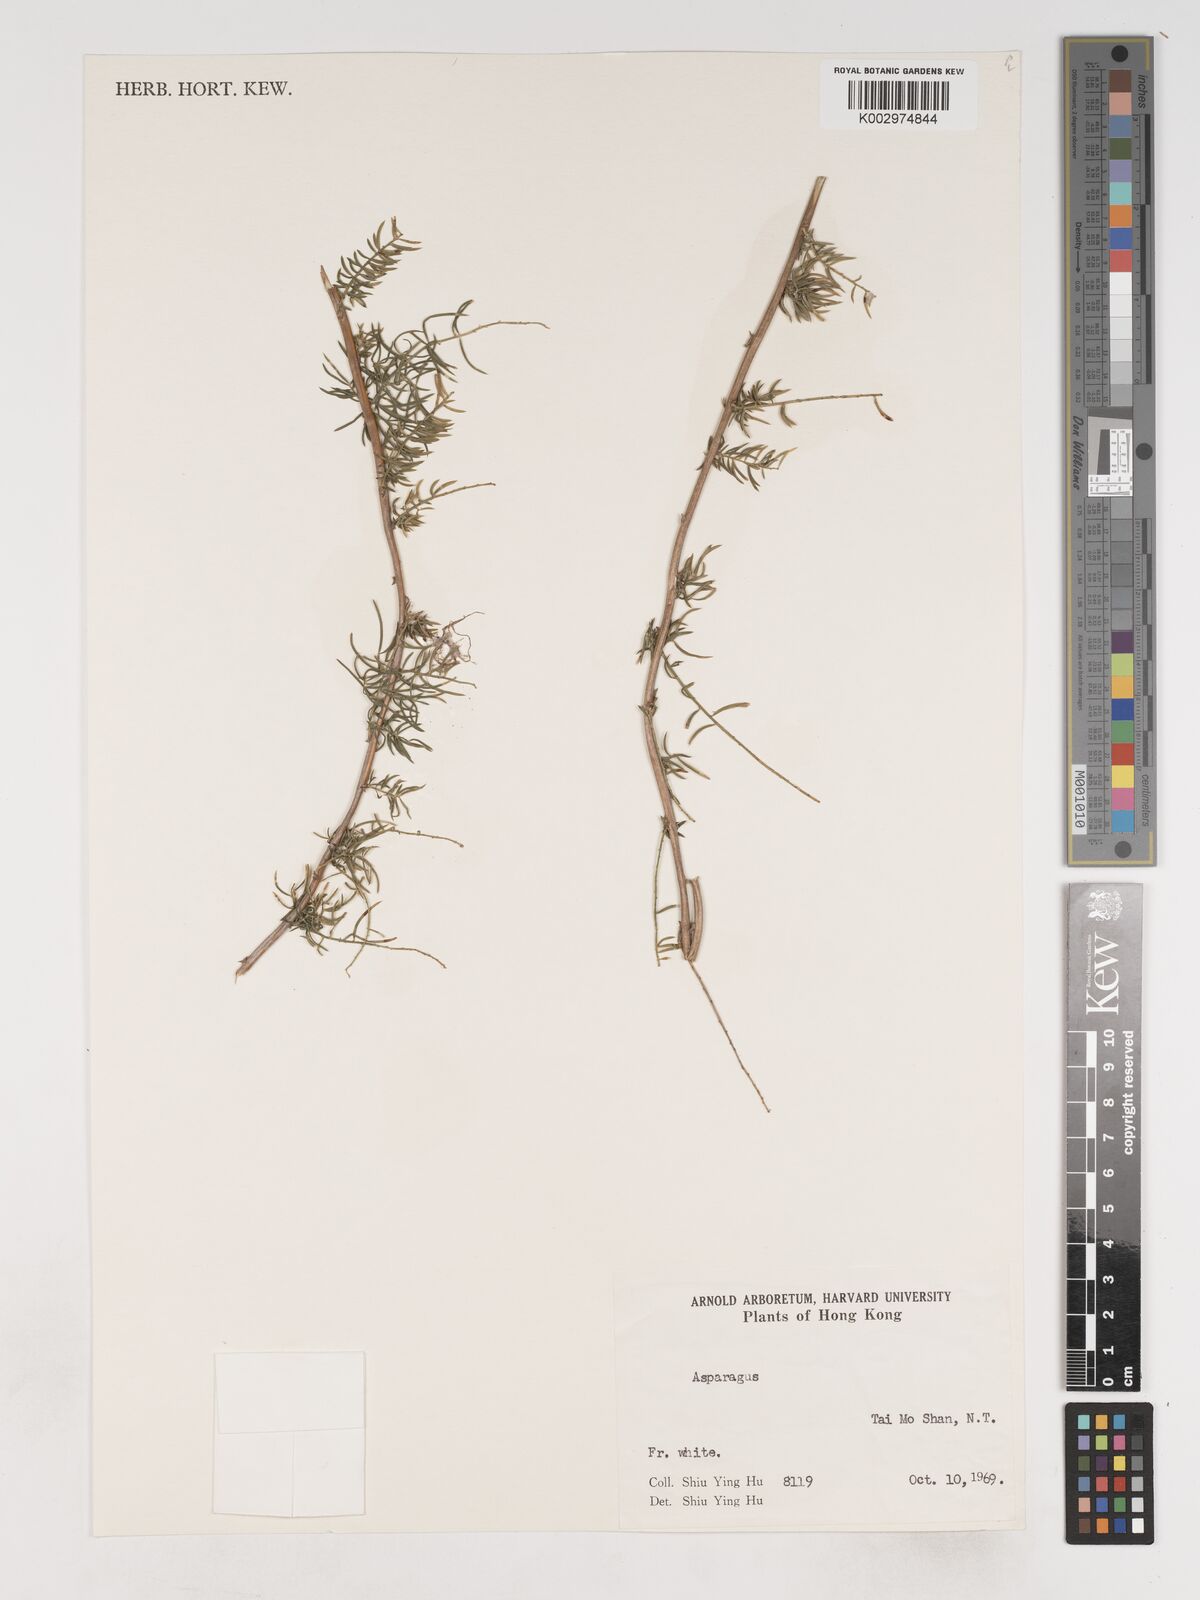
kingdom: Plantae
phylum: Tracheophyta
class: Liliopsida
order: Asparagales
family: Asparagaceae
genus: Asparagus
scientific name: Asparagus cochinchinensis
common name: Chinese asparagus
